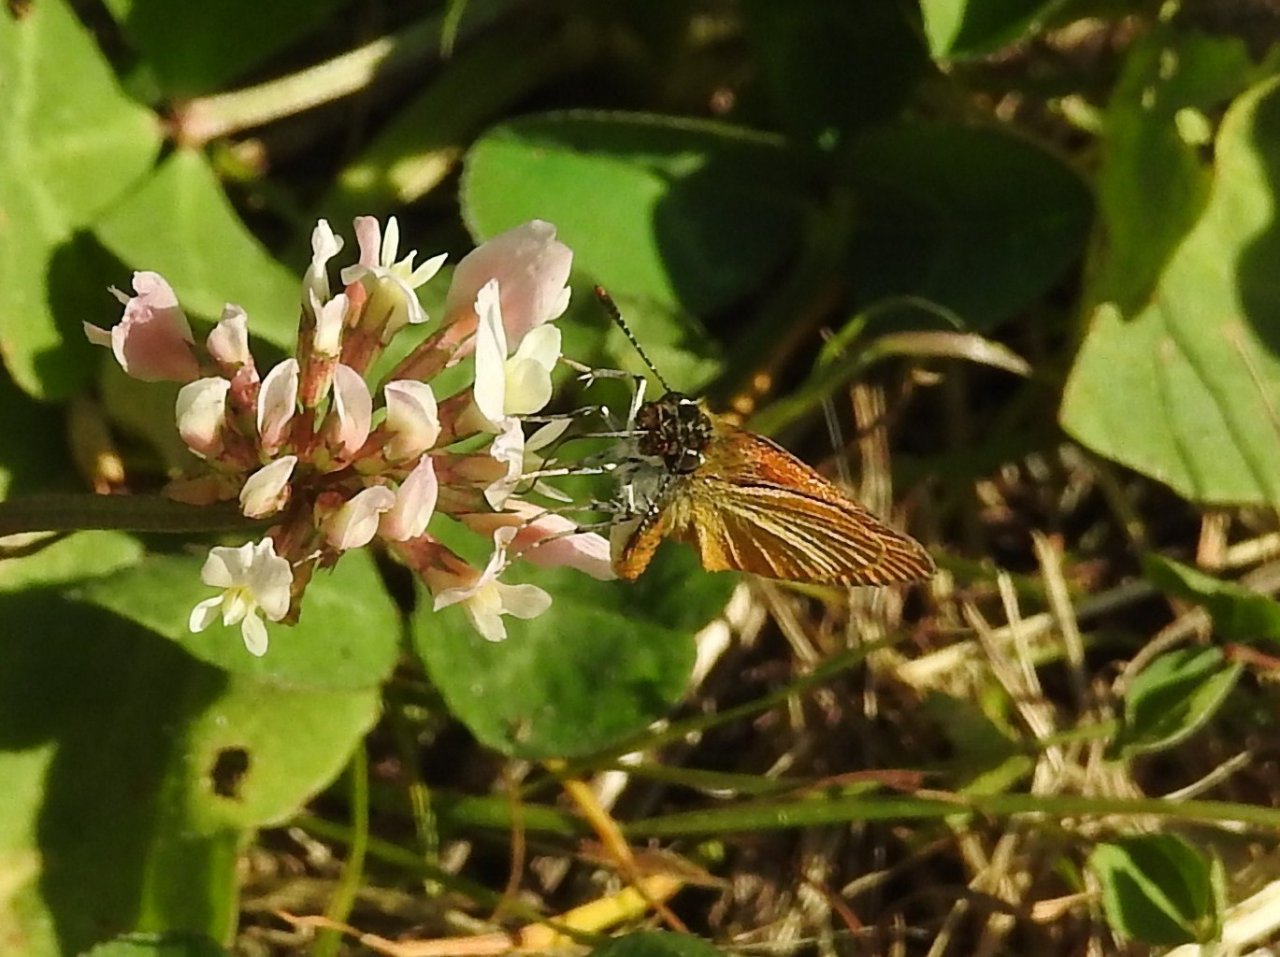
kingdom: Animalia
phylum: Arthropoda
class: Insecta
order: Lepidoptera
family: Hesperiidae
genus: Ancyloxypha
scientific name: Ancyloxypha numitor
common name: Least Skipper
